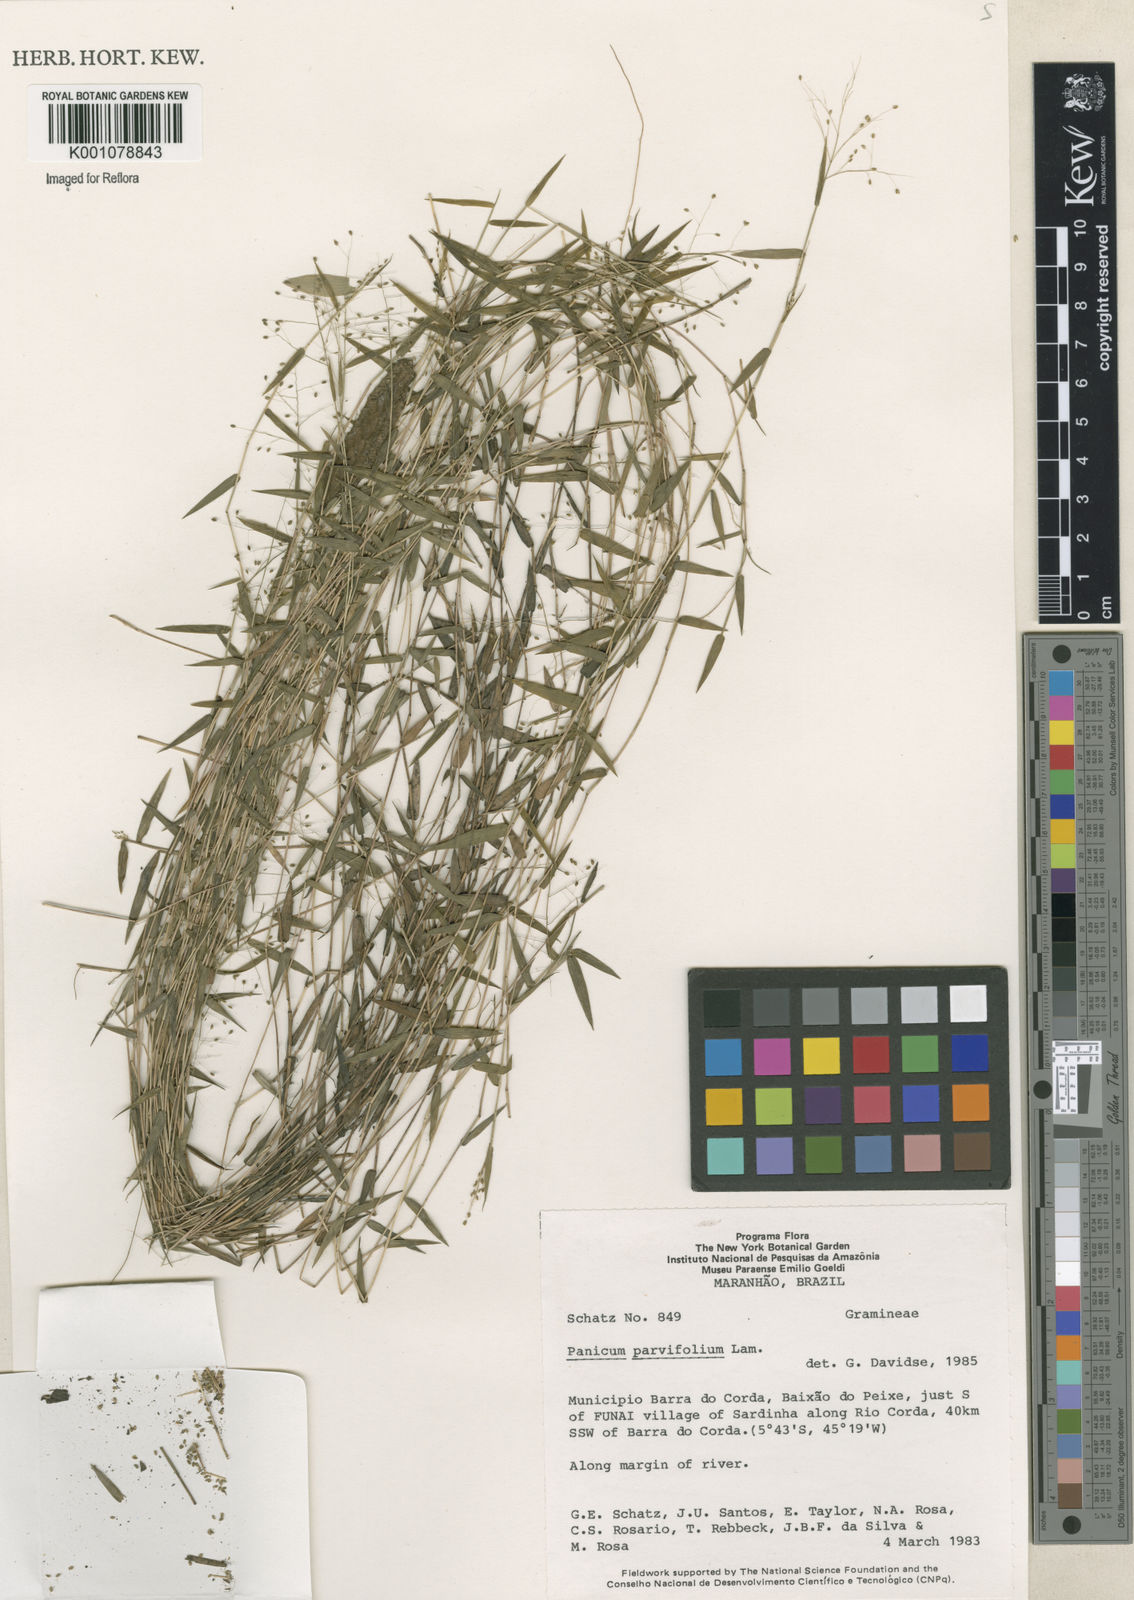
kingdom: Plantae
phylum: Tracheophyta
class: Liliopsida
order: Poales
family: Poaceae
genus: Trichanthecium
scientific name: Trichanthecium parvifolium
